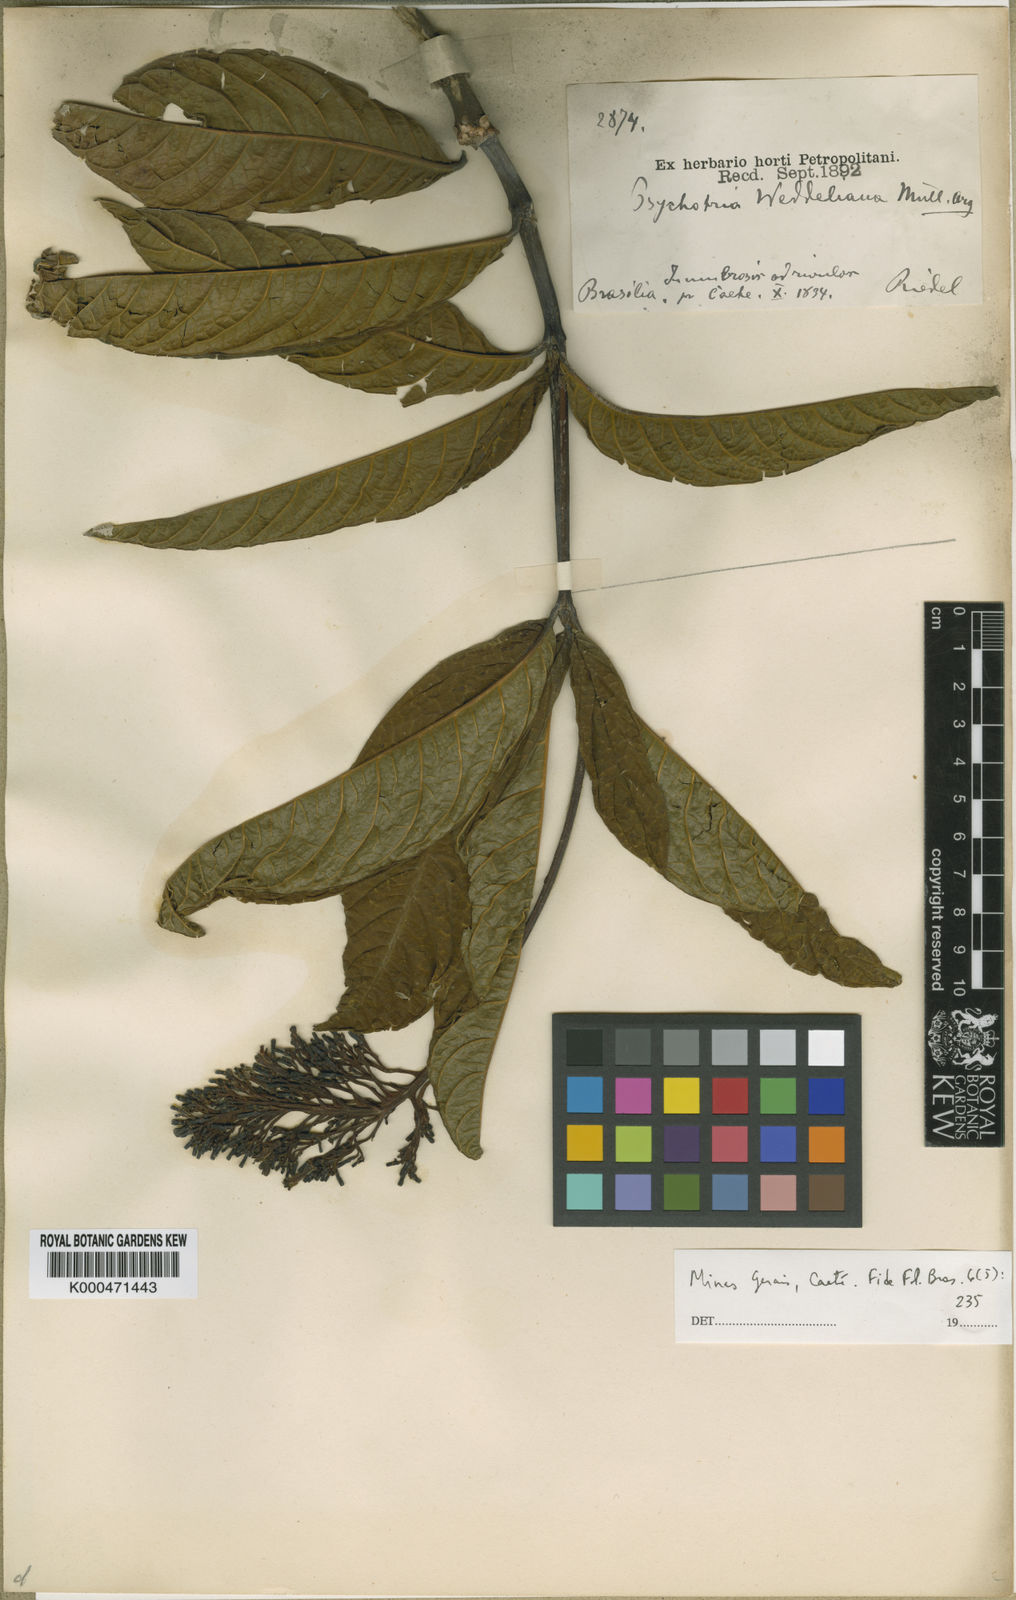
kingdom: Plantae
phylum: Tracheophyta
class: Magnoliopsida
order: Gentianales
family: Rubiaceae
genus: Palicourea
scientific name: Palicourea tetraphylla
